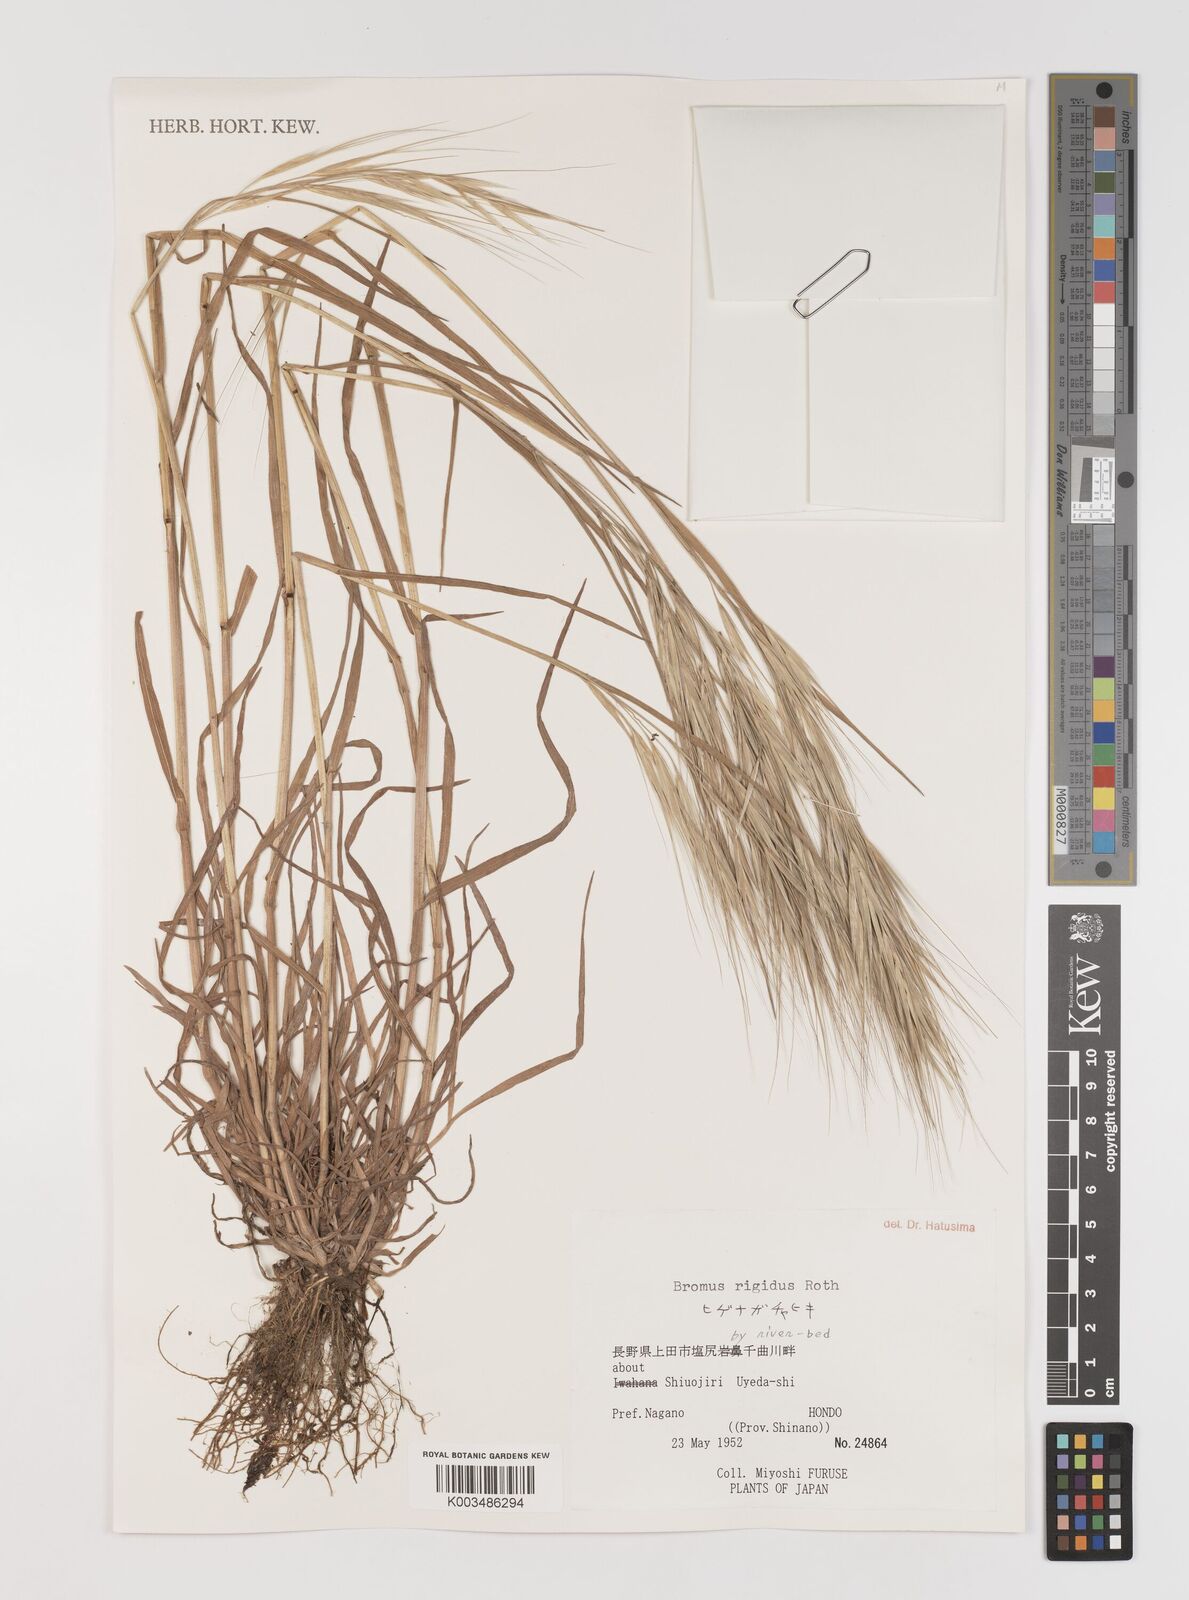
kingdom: Plantae
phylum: Tracheophyta
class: Liliopsida
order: Poales
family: Poaceae
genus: Bromus
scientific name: Bromus diandrus
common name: Ripgut brome
